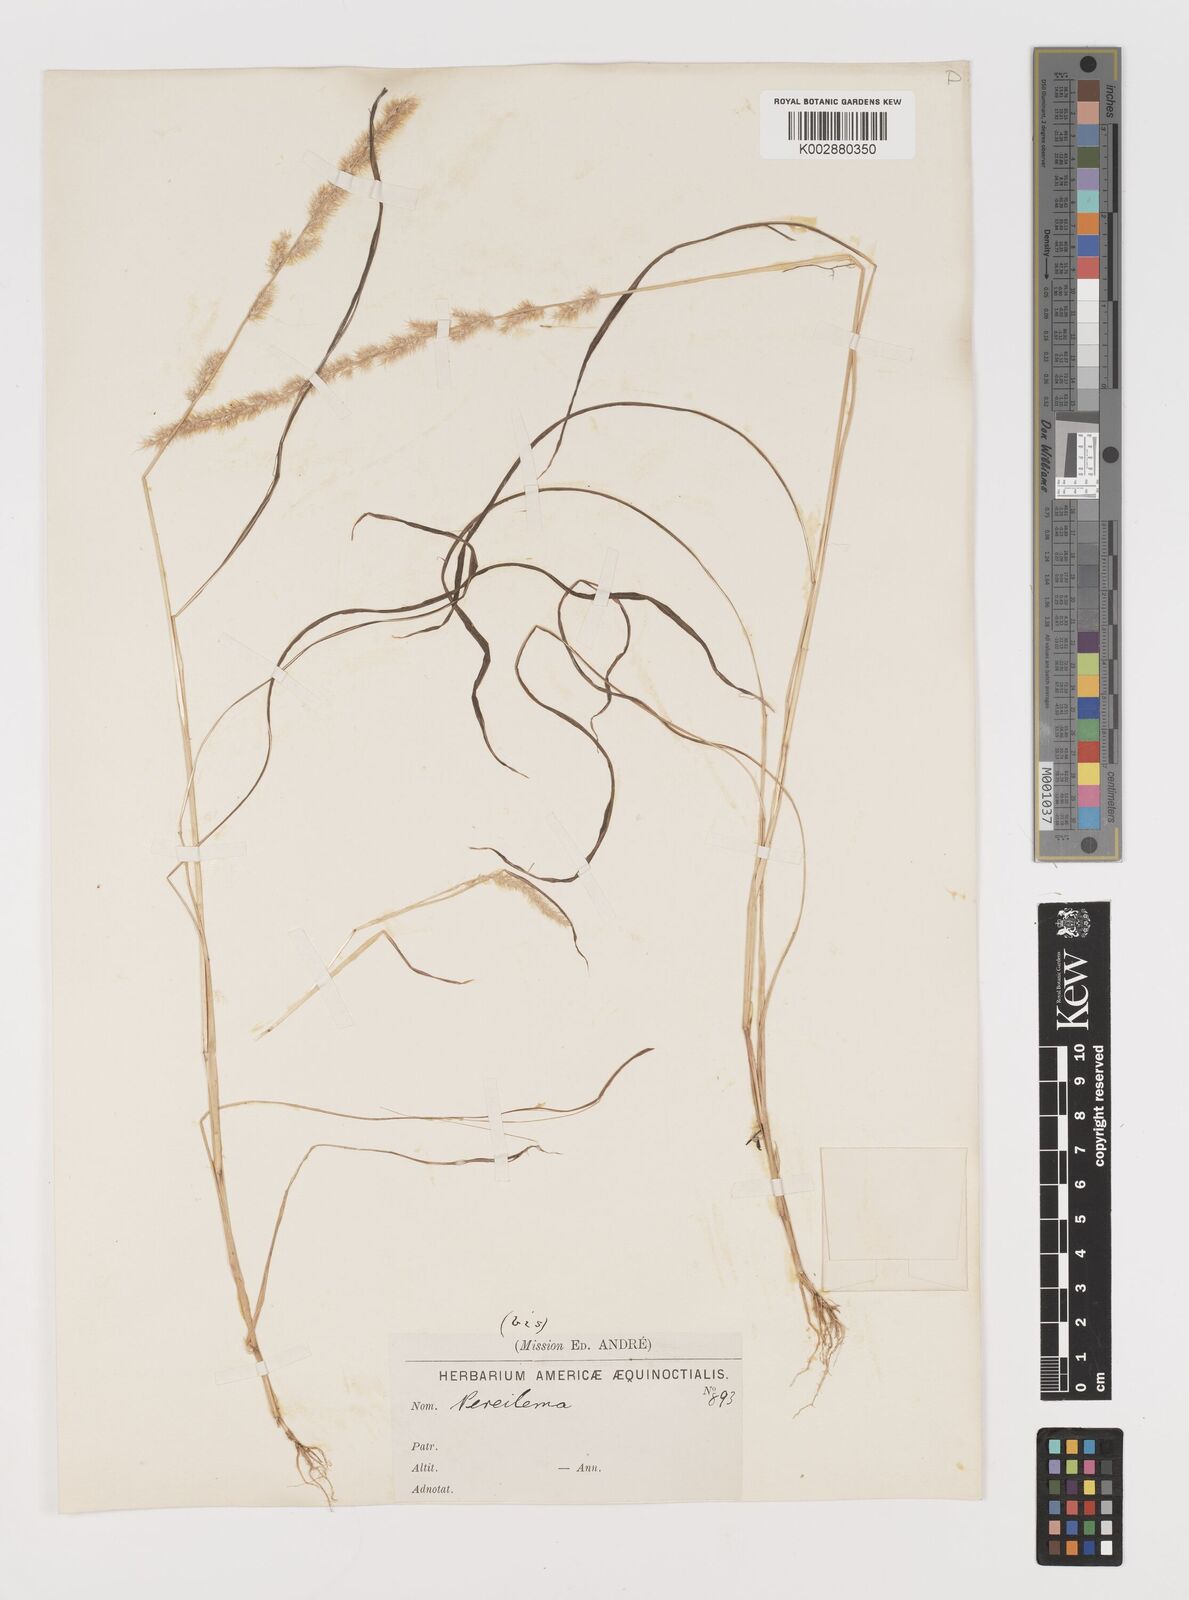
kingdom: Plantae
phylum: Tracheophyta
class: Liliopsida
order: Poales
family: Poaceae
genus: Muhlenbergia
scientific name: Muhlenbergia pereilema
